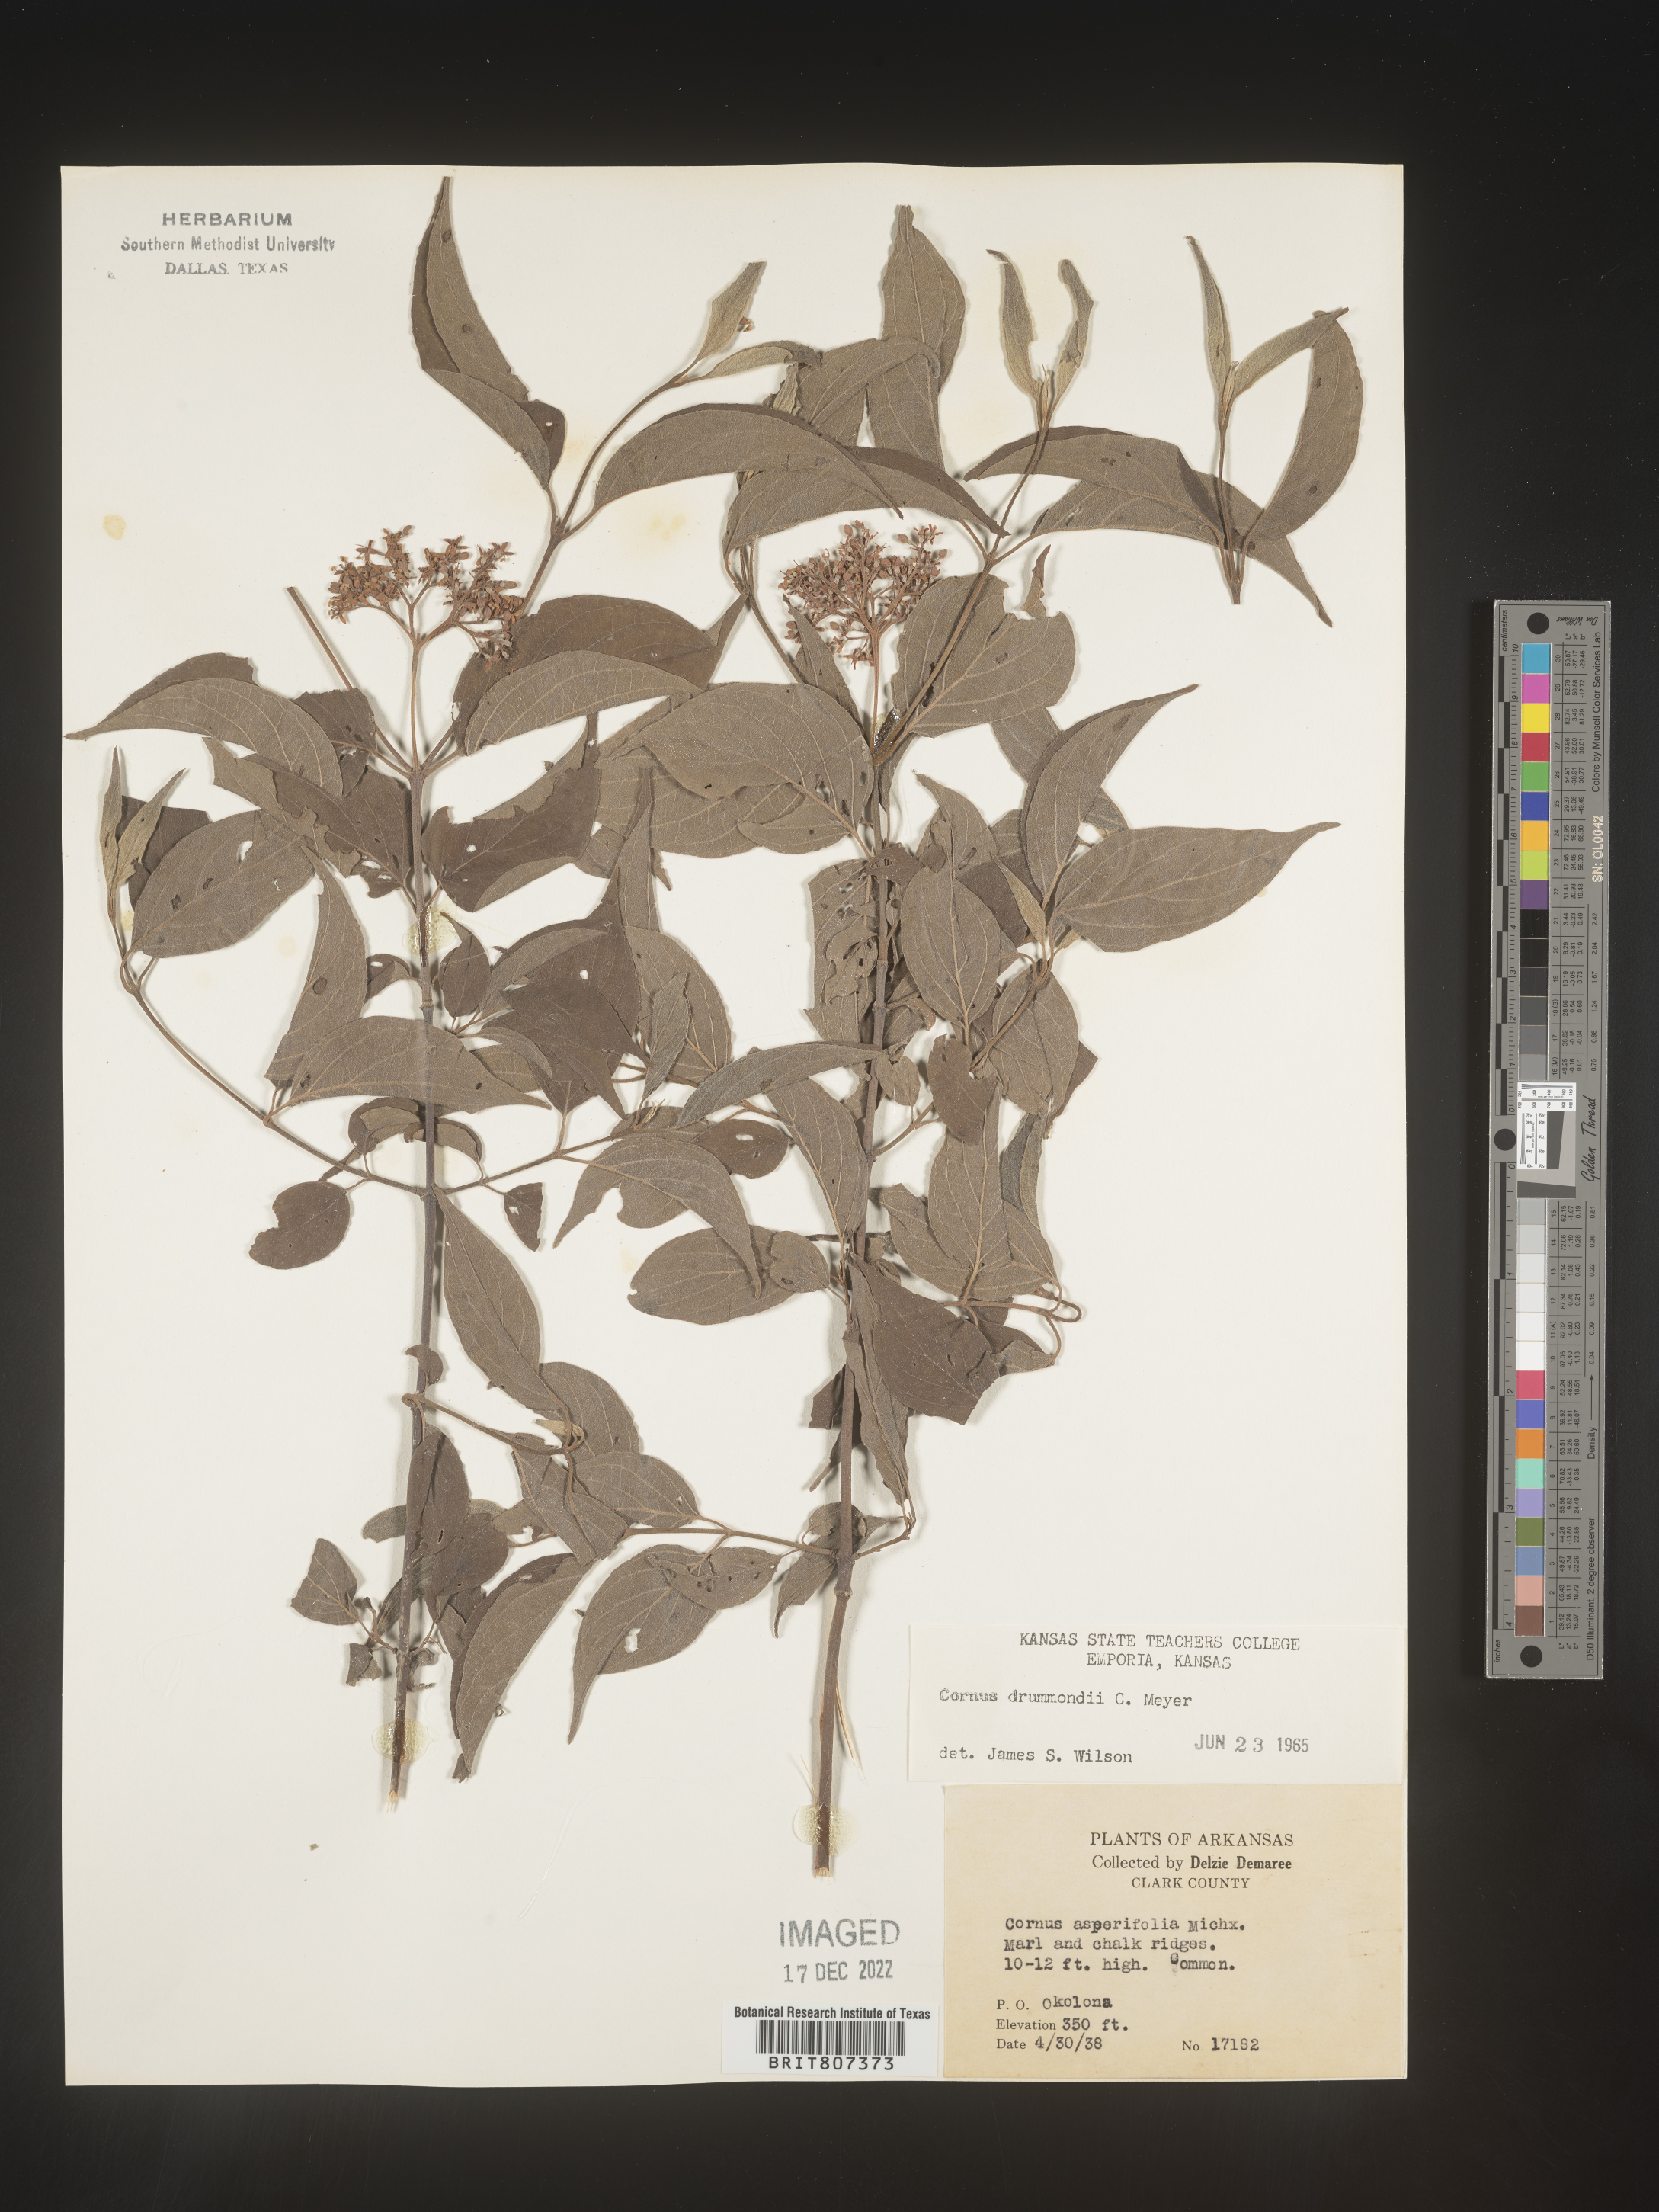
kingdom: Plantae
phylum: Tracheophyta
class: Magnoliopsida
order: Cornales
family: Cornaceae
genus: Cornus
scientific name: Cornus drummondii
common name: Rough-leaf dogwood
